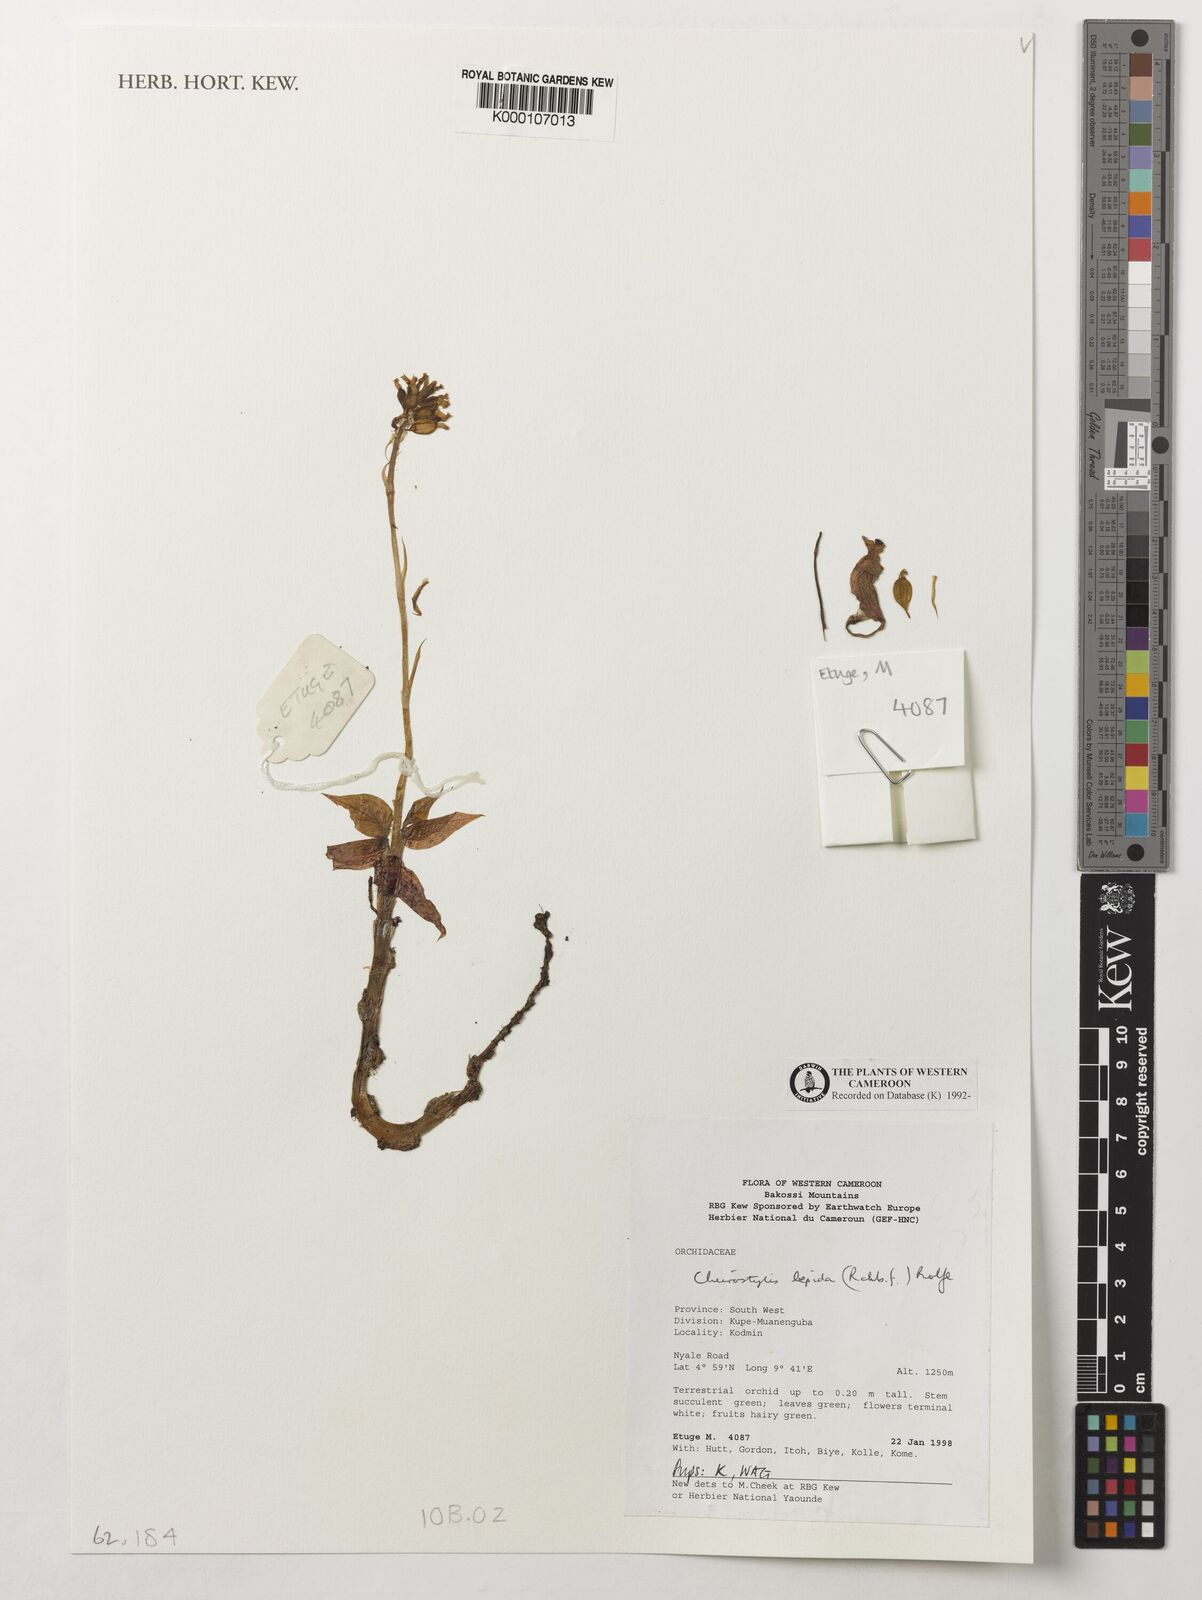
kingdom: Plantae
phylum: Tracheophyta
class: Liliopsida
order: Asparagales
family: Orchidaceae
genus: Cheirostylis
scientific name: Cheirostylis lepida
